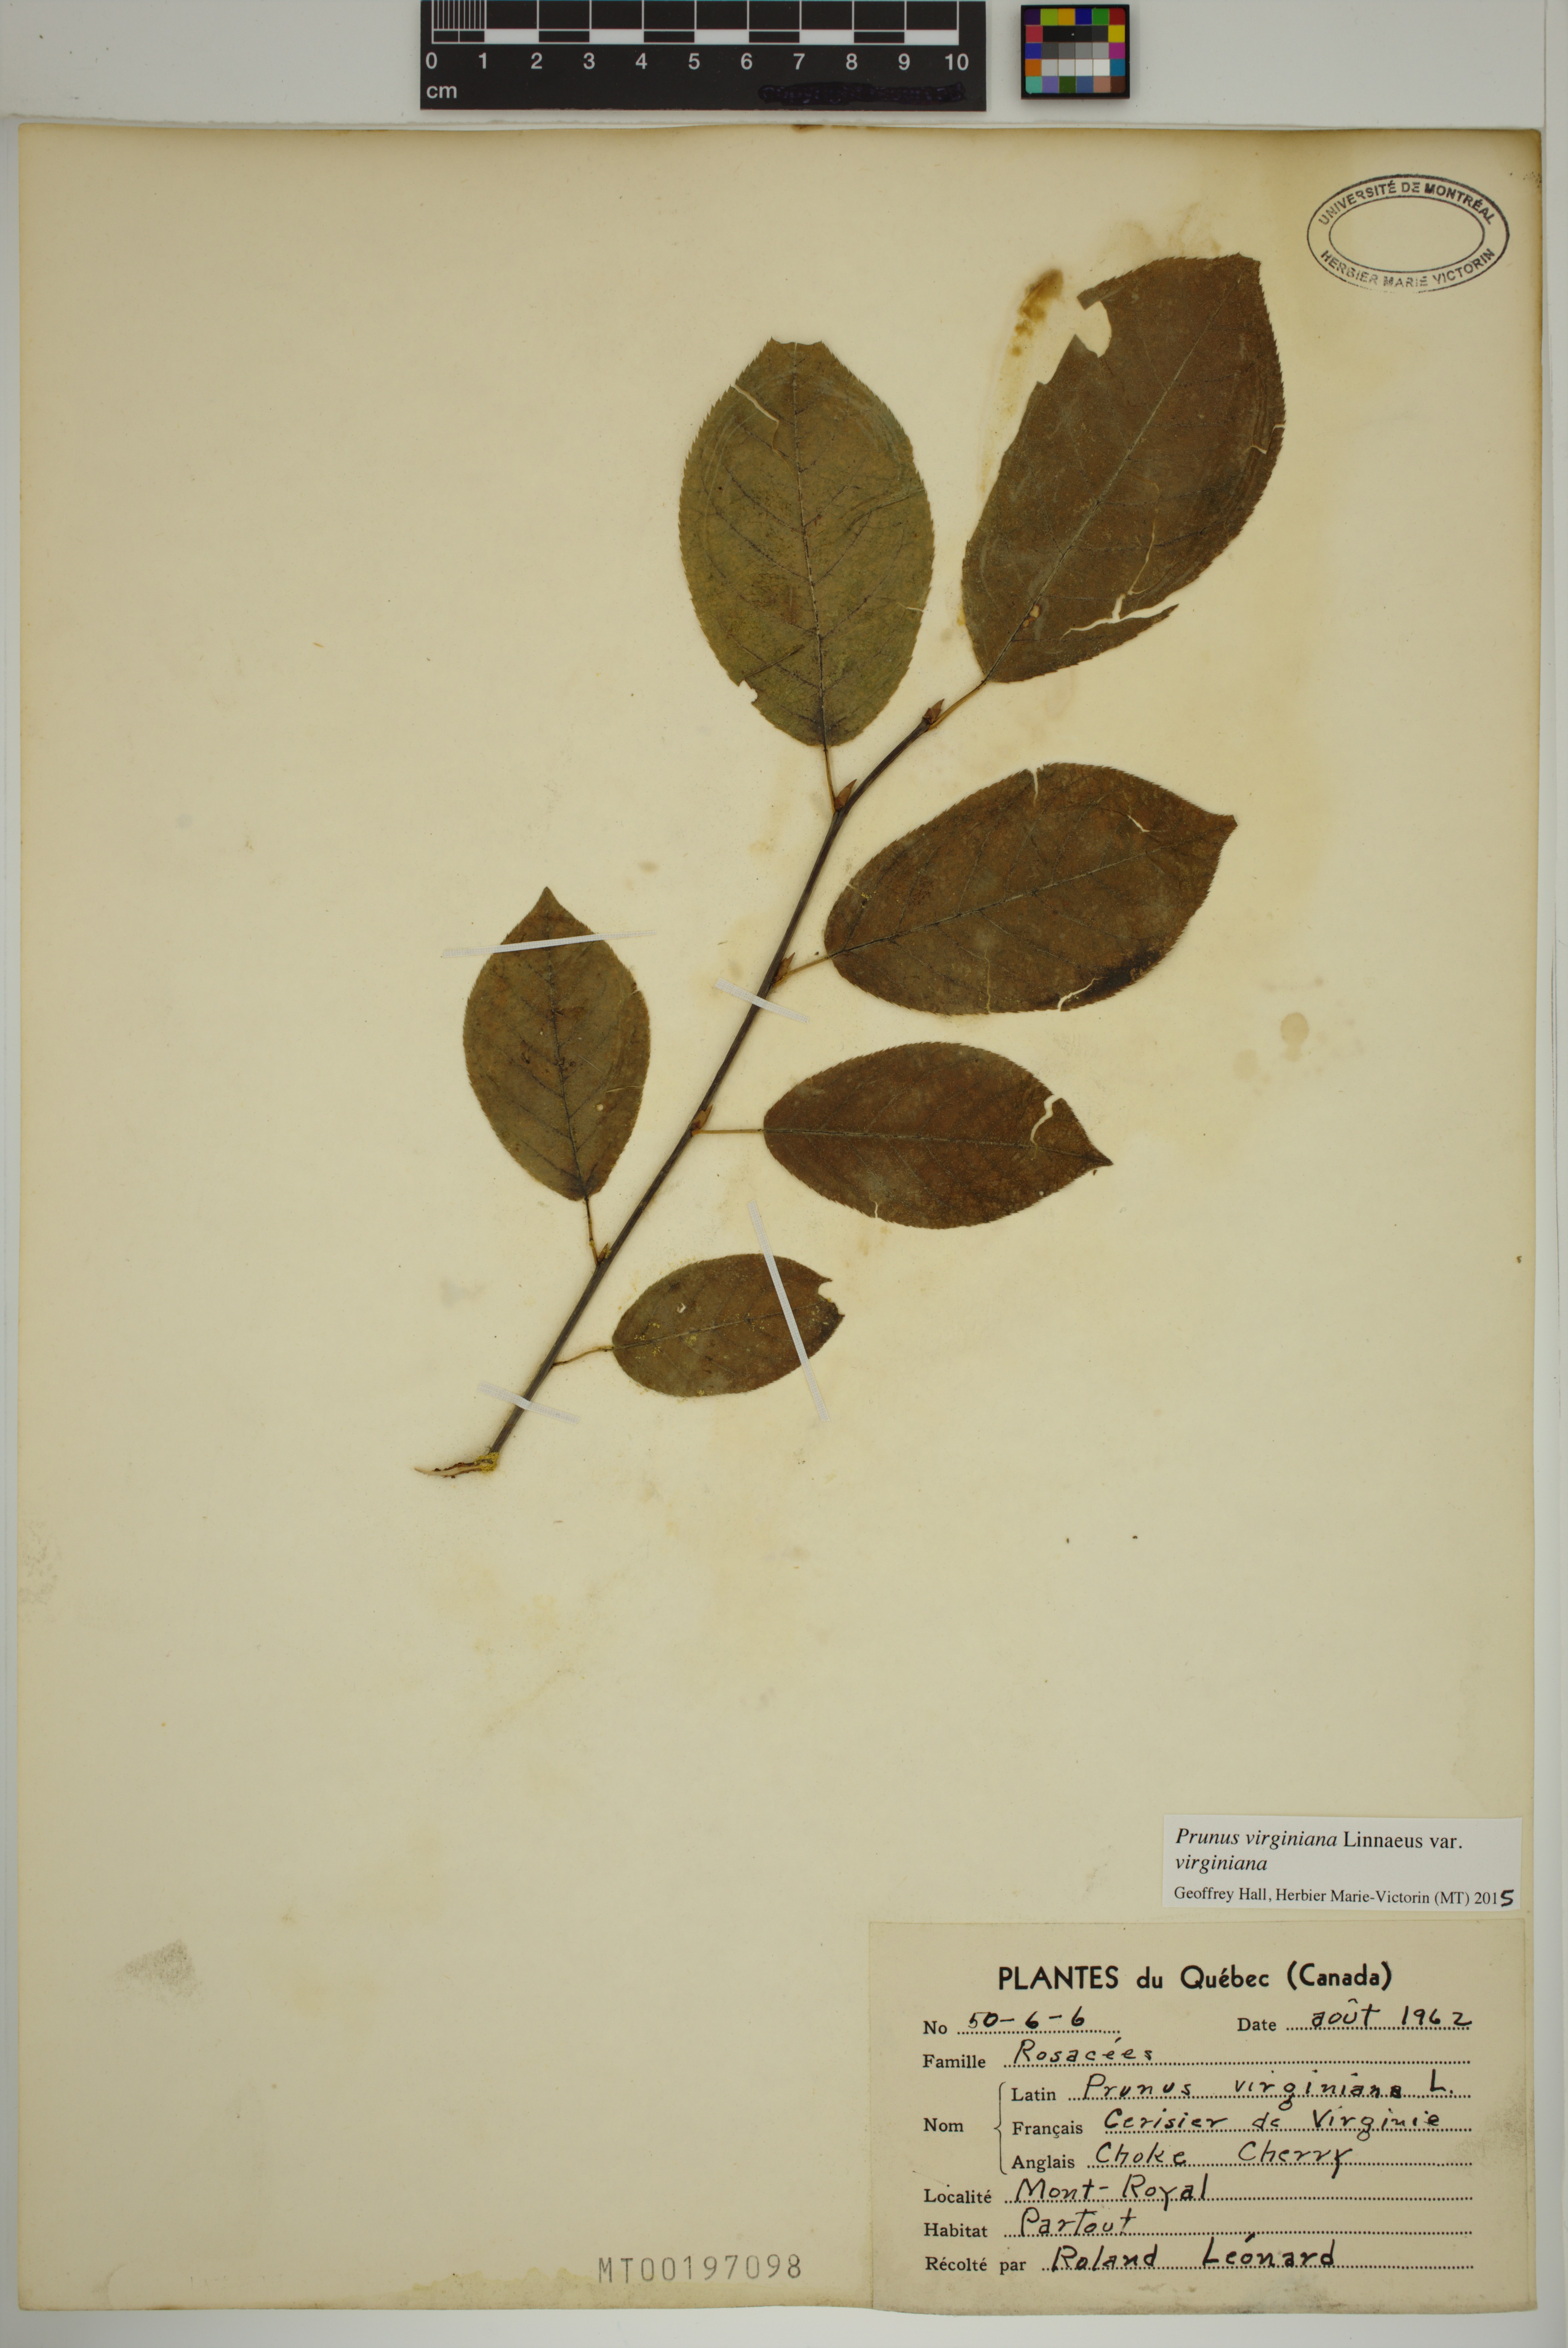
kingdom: Plantae
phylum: Tracheophyta
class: Magnoliopsida
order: Rosales
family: Rosaceae
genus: Prunus
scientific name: Prunus virginiana
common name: Chokecherry
